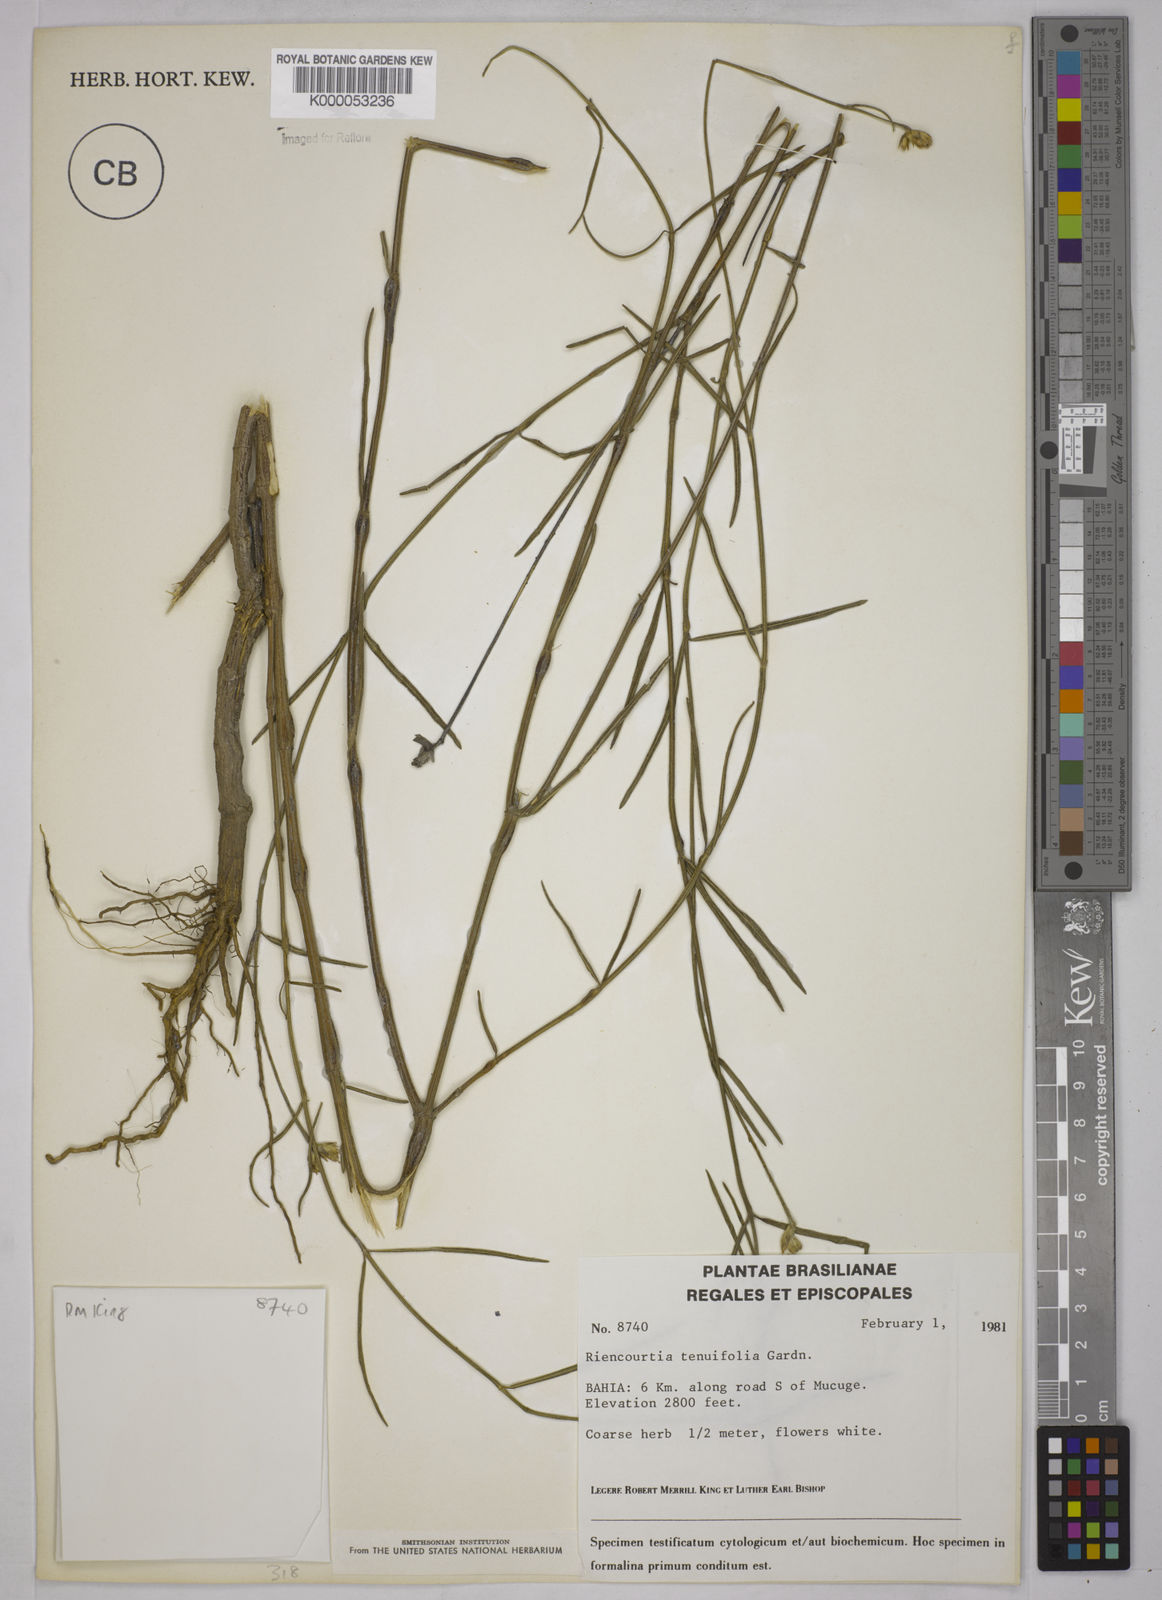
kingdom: Plantae
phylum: Tracheophyta
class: Magnoliopsida
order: Asterales
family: Asteraceae
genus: Riencourtia
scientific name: Riencourtia tenuifolia
